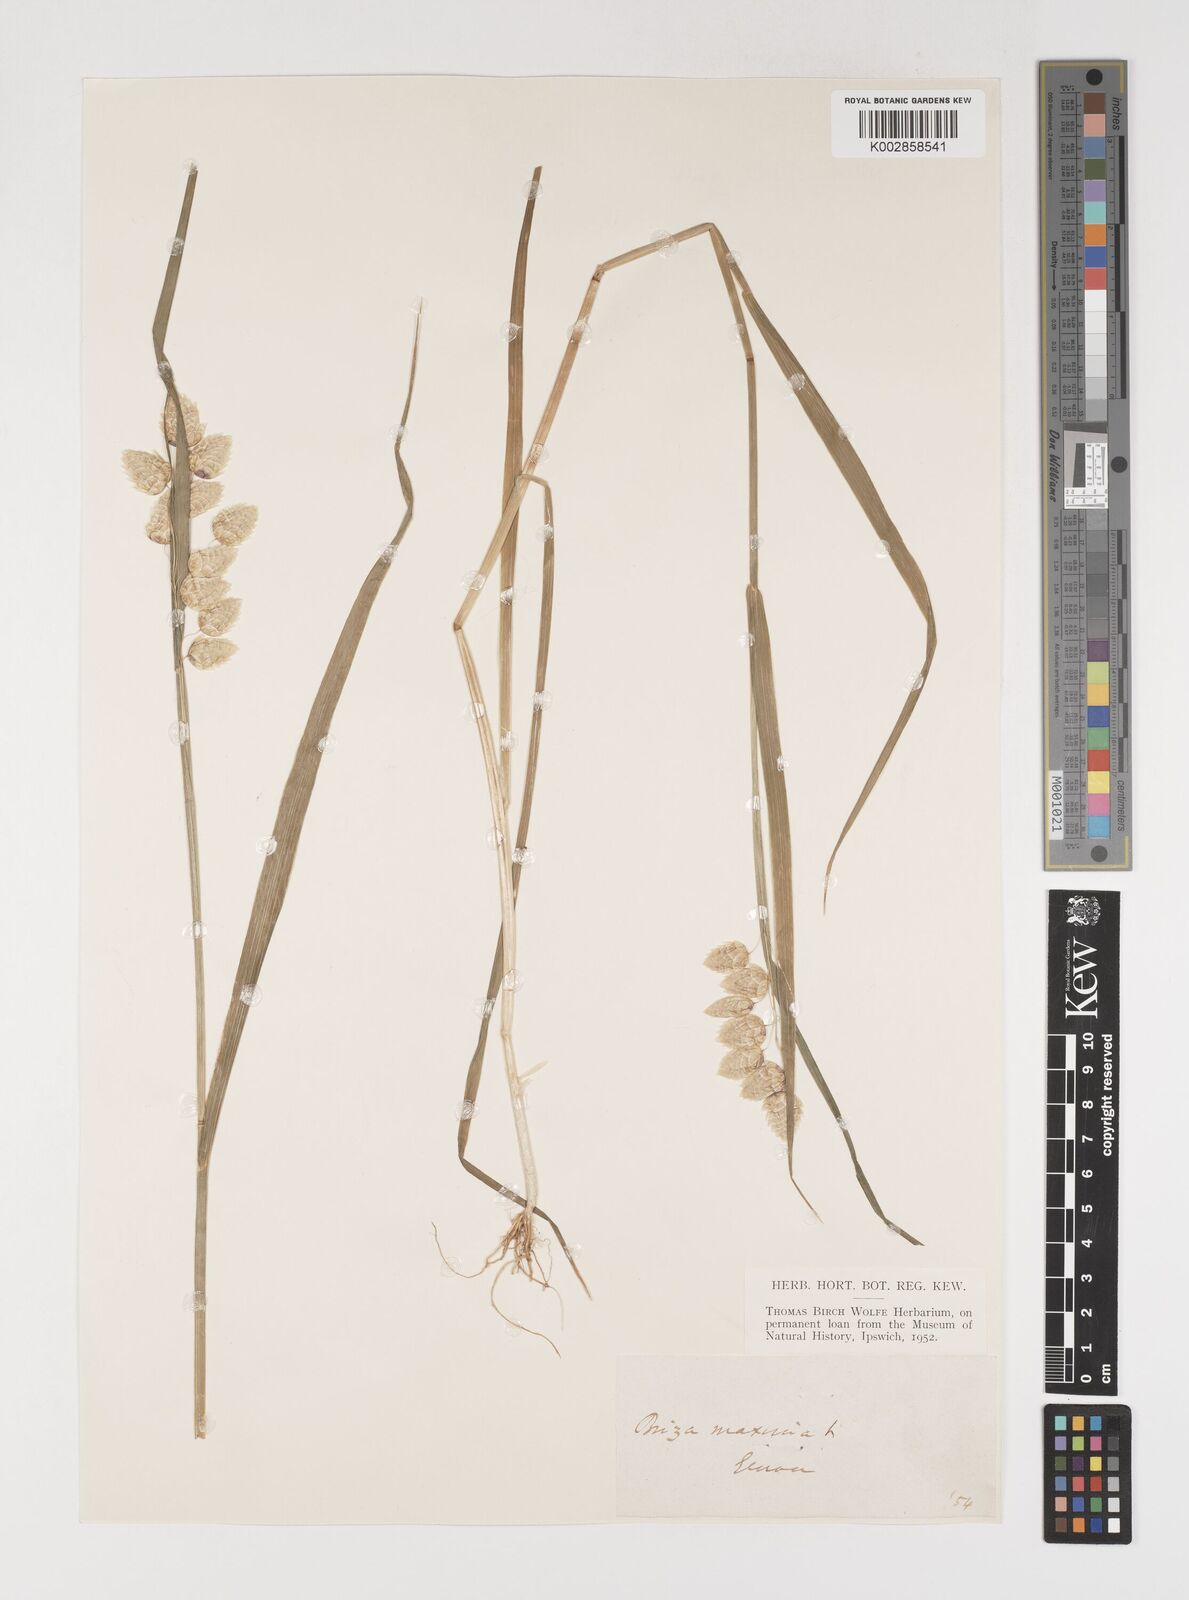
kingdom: Plantae
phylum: Tracheophyta
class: Liliopsida
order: Poales
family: Poaceae
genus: Briza
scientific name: Briza maxima
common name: Big quakinggrass
